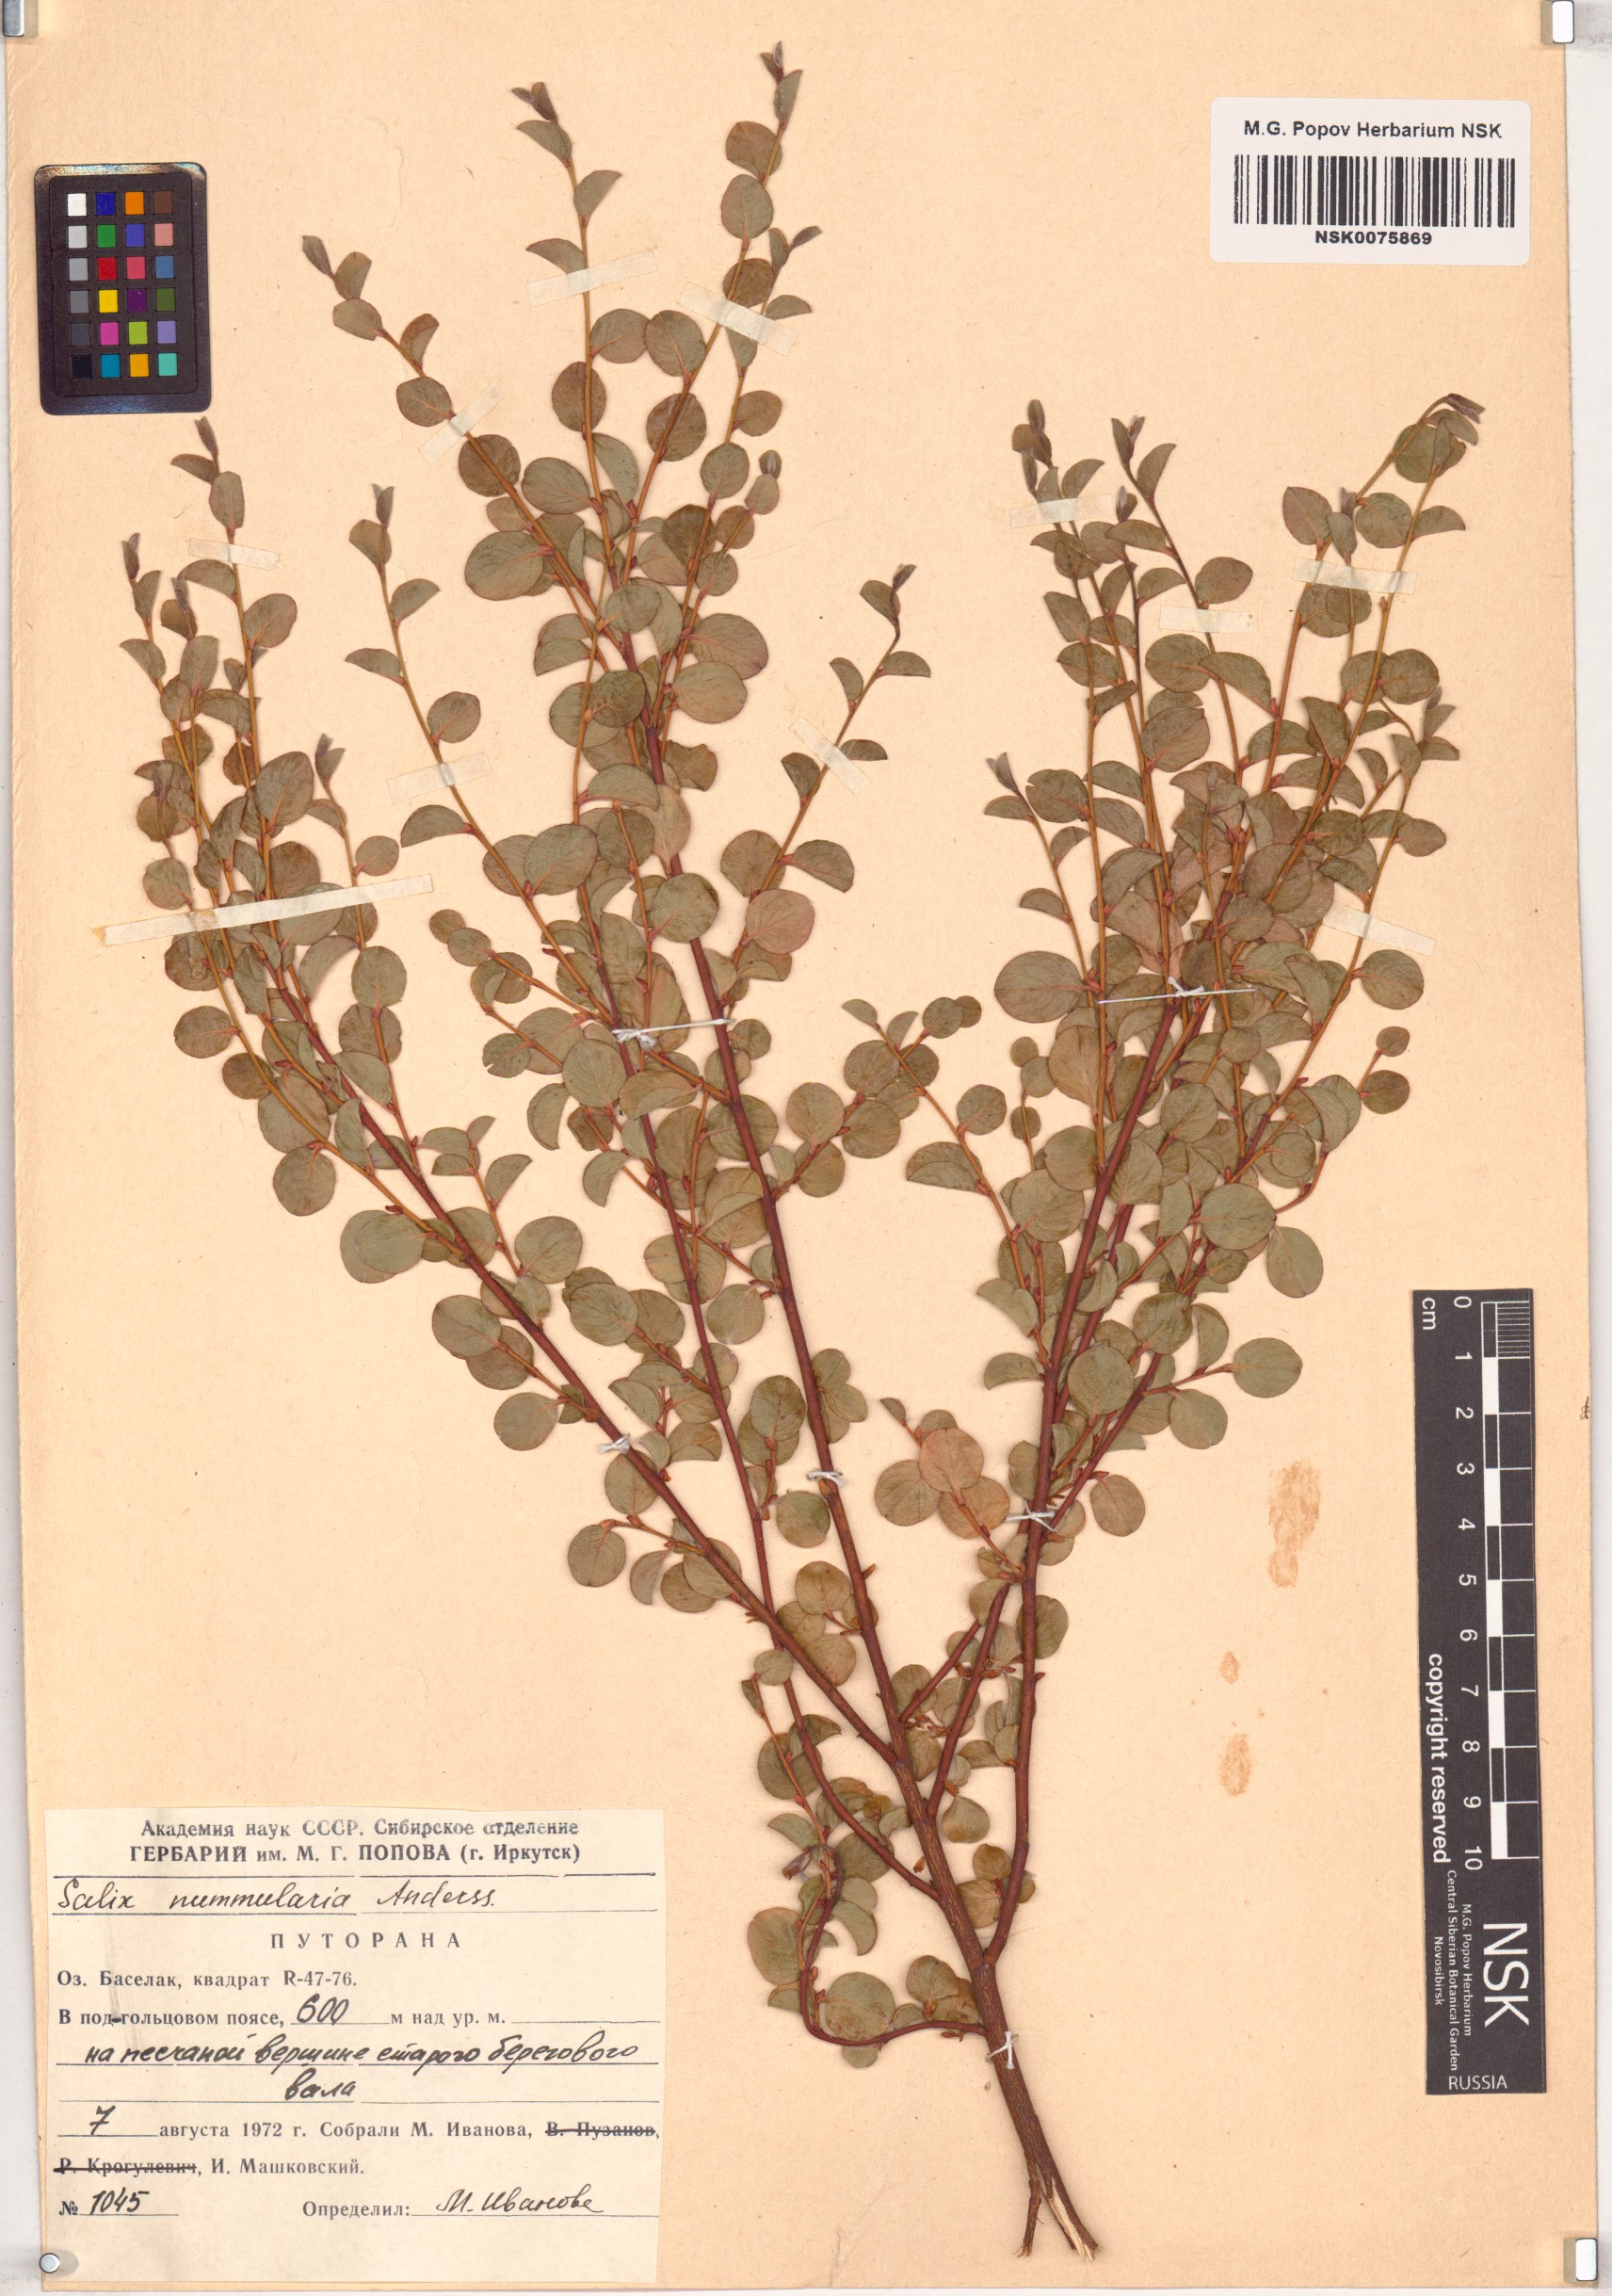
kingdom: Plantae
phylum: Tracheophyta
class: Magnoliopsida
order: Malpighiales
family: Salicaceae
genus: Salix
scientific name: Salix nummularia
